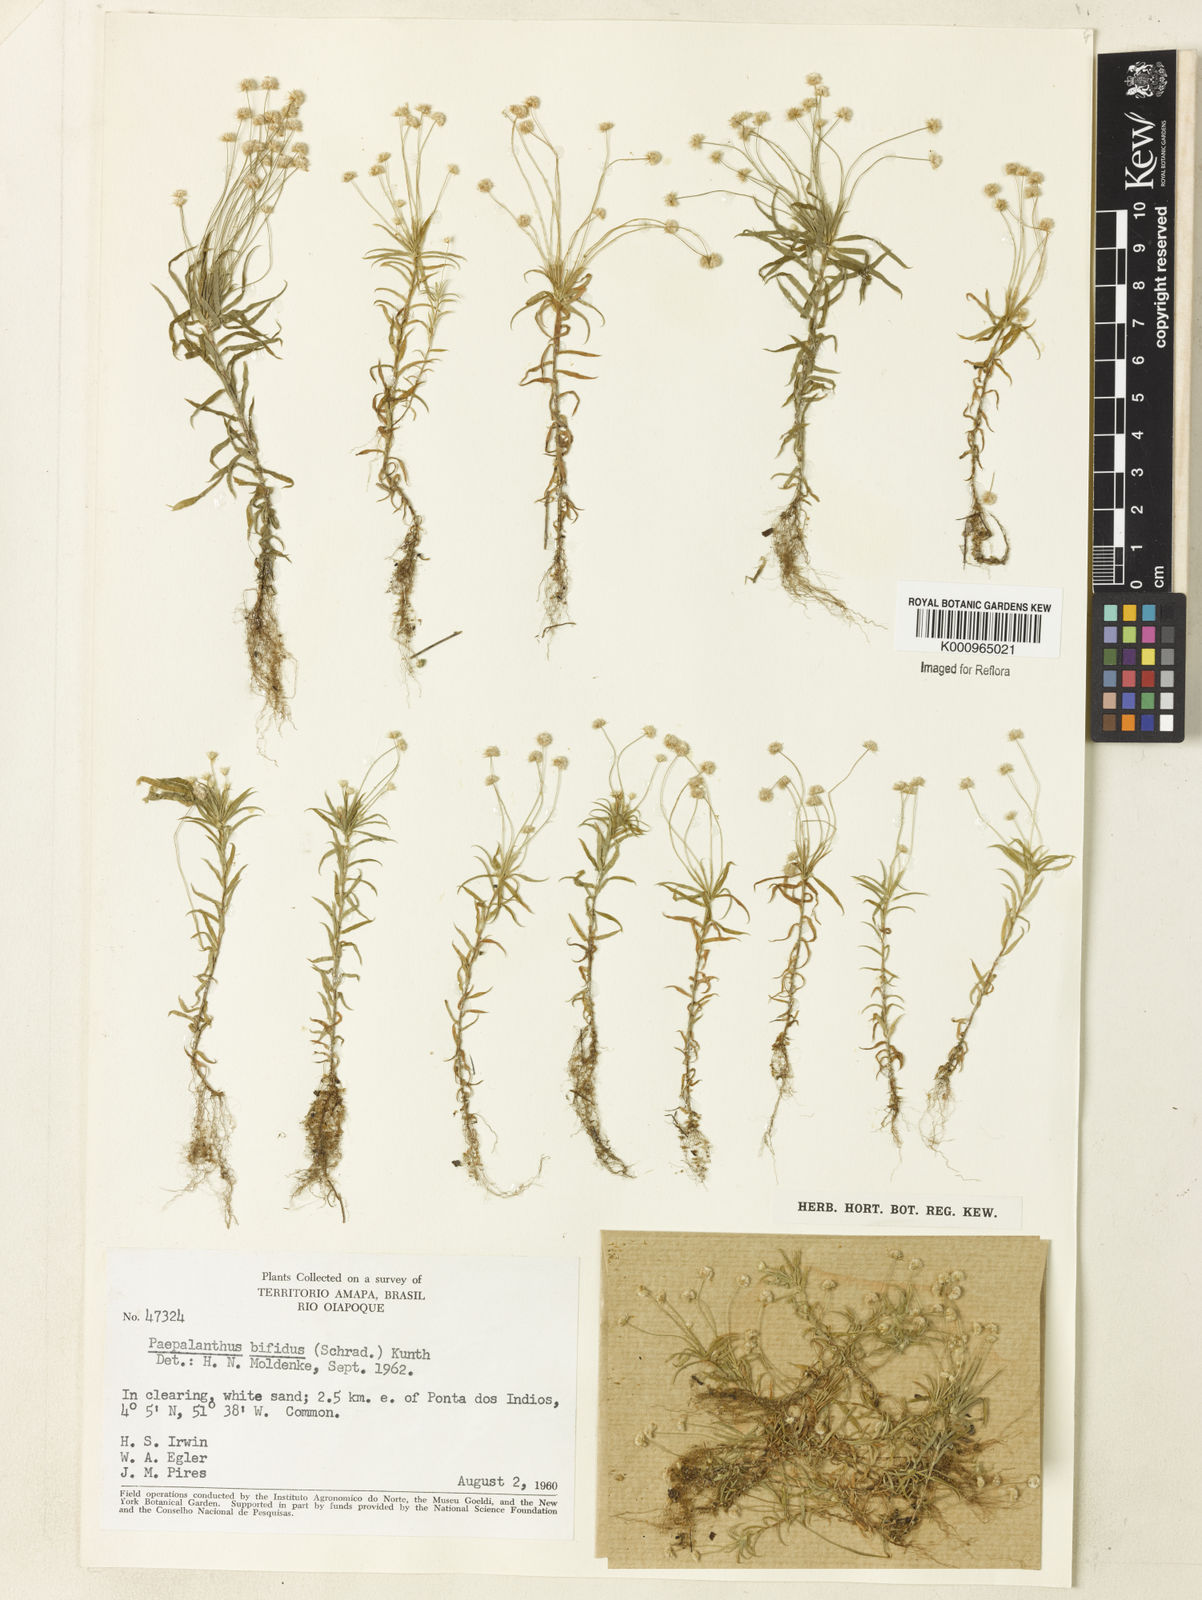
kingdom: Plantae
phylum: Tracheophyta
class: Liliopsida
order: Poales
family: Eriocaulaceae
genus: Paepalanthus
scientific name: Paepalanthus bifidus
